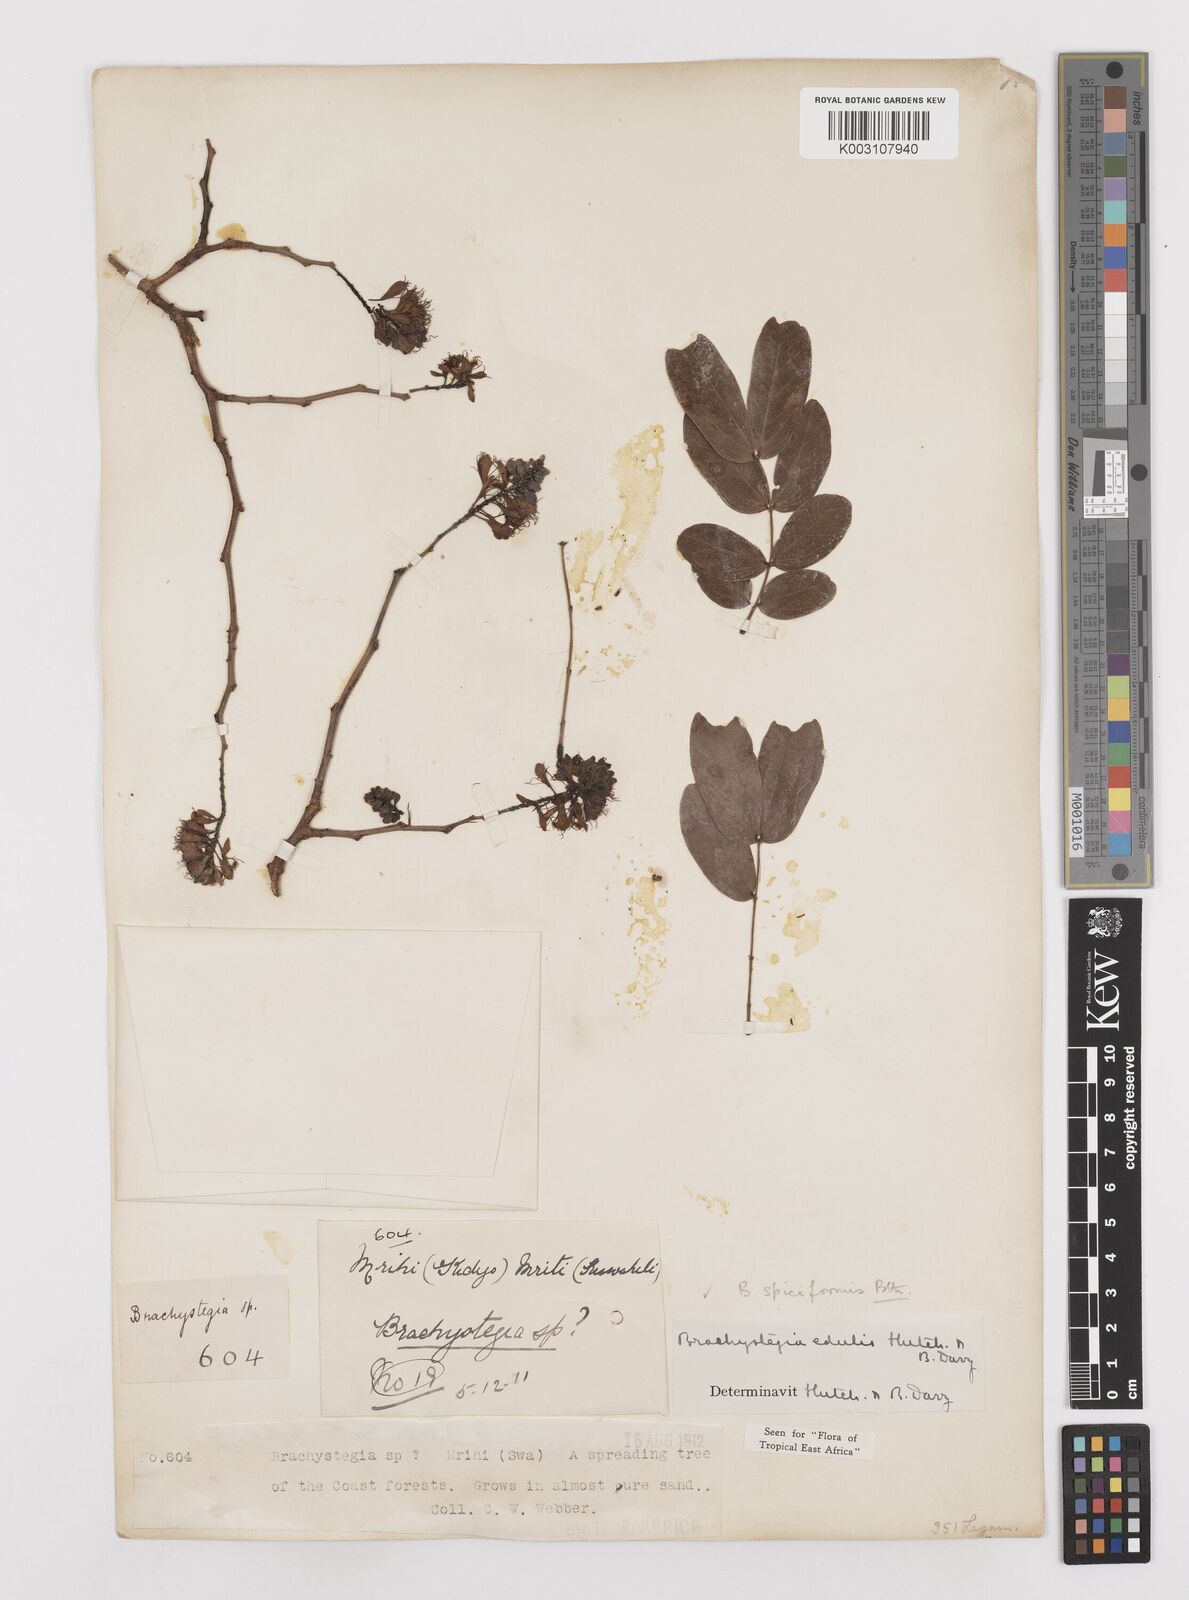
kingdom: Plantae
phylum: Tracheophyta
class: Magnoliopsida
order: Fabales
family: Fabaceae
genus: Brachystegia
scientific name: Brachystegia spiciformis
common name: Zebrawood
